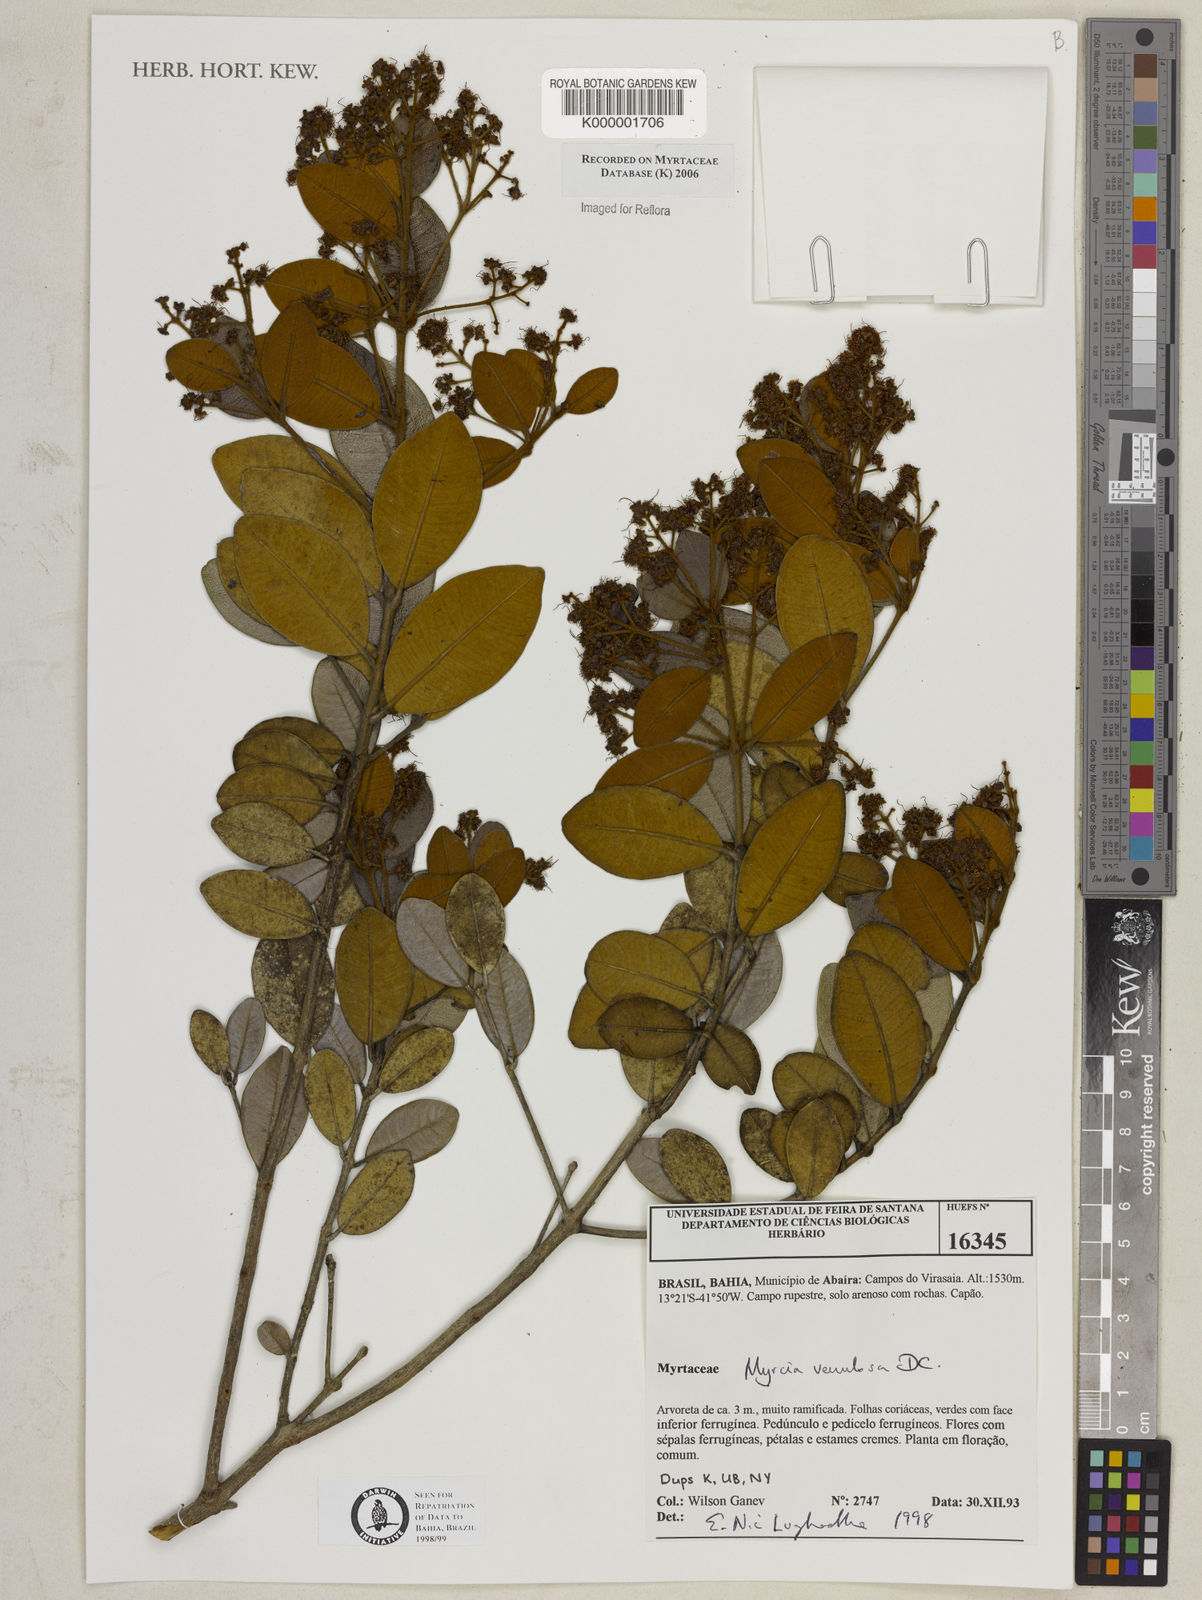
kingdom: Plantae
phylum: Tracheophyta
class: Magnoliopsida
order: Myrtales
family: Myrtaceae
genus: Myrcia
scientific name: Myrcia venulosa
